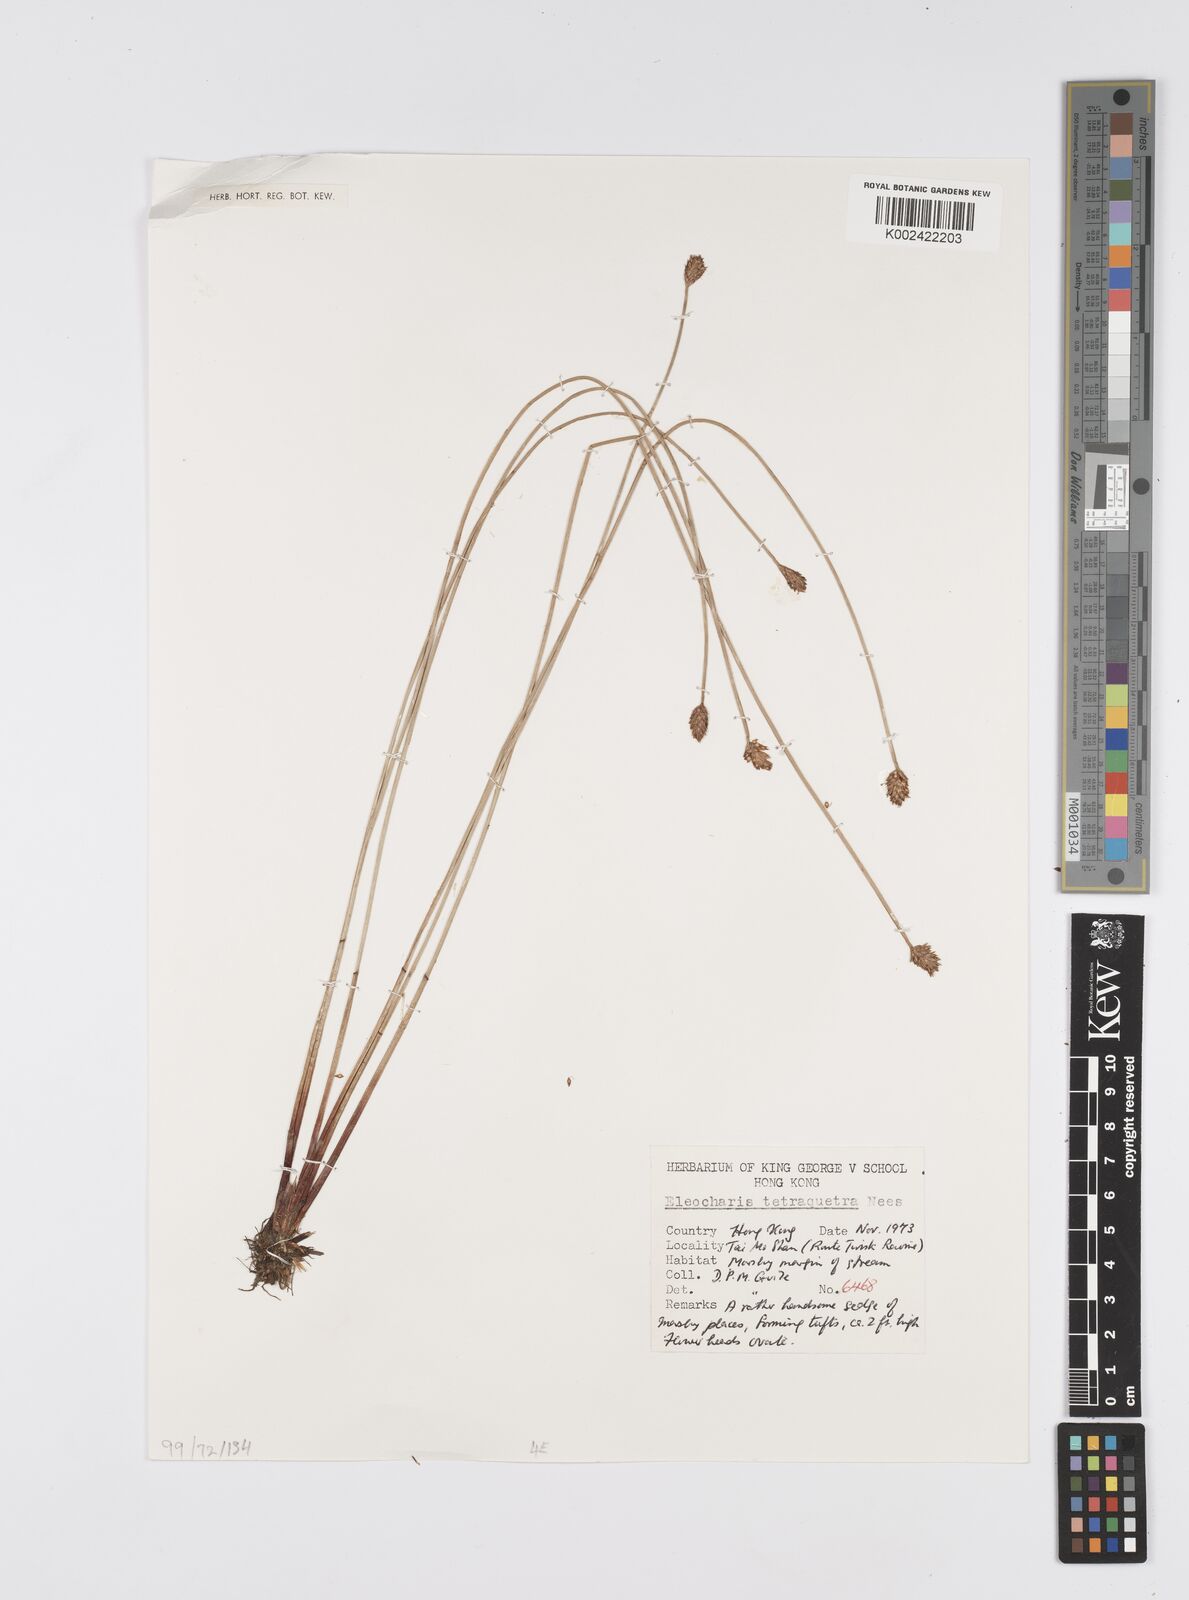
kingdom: Plantae
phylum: Tracheophyta
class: Liliopsida
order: Poales
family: Cyperaceae
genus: Eleocharis
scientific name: Eleocharis tetraquetra
